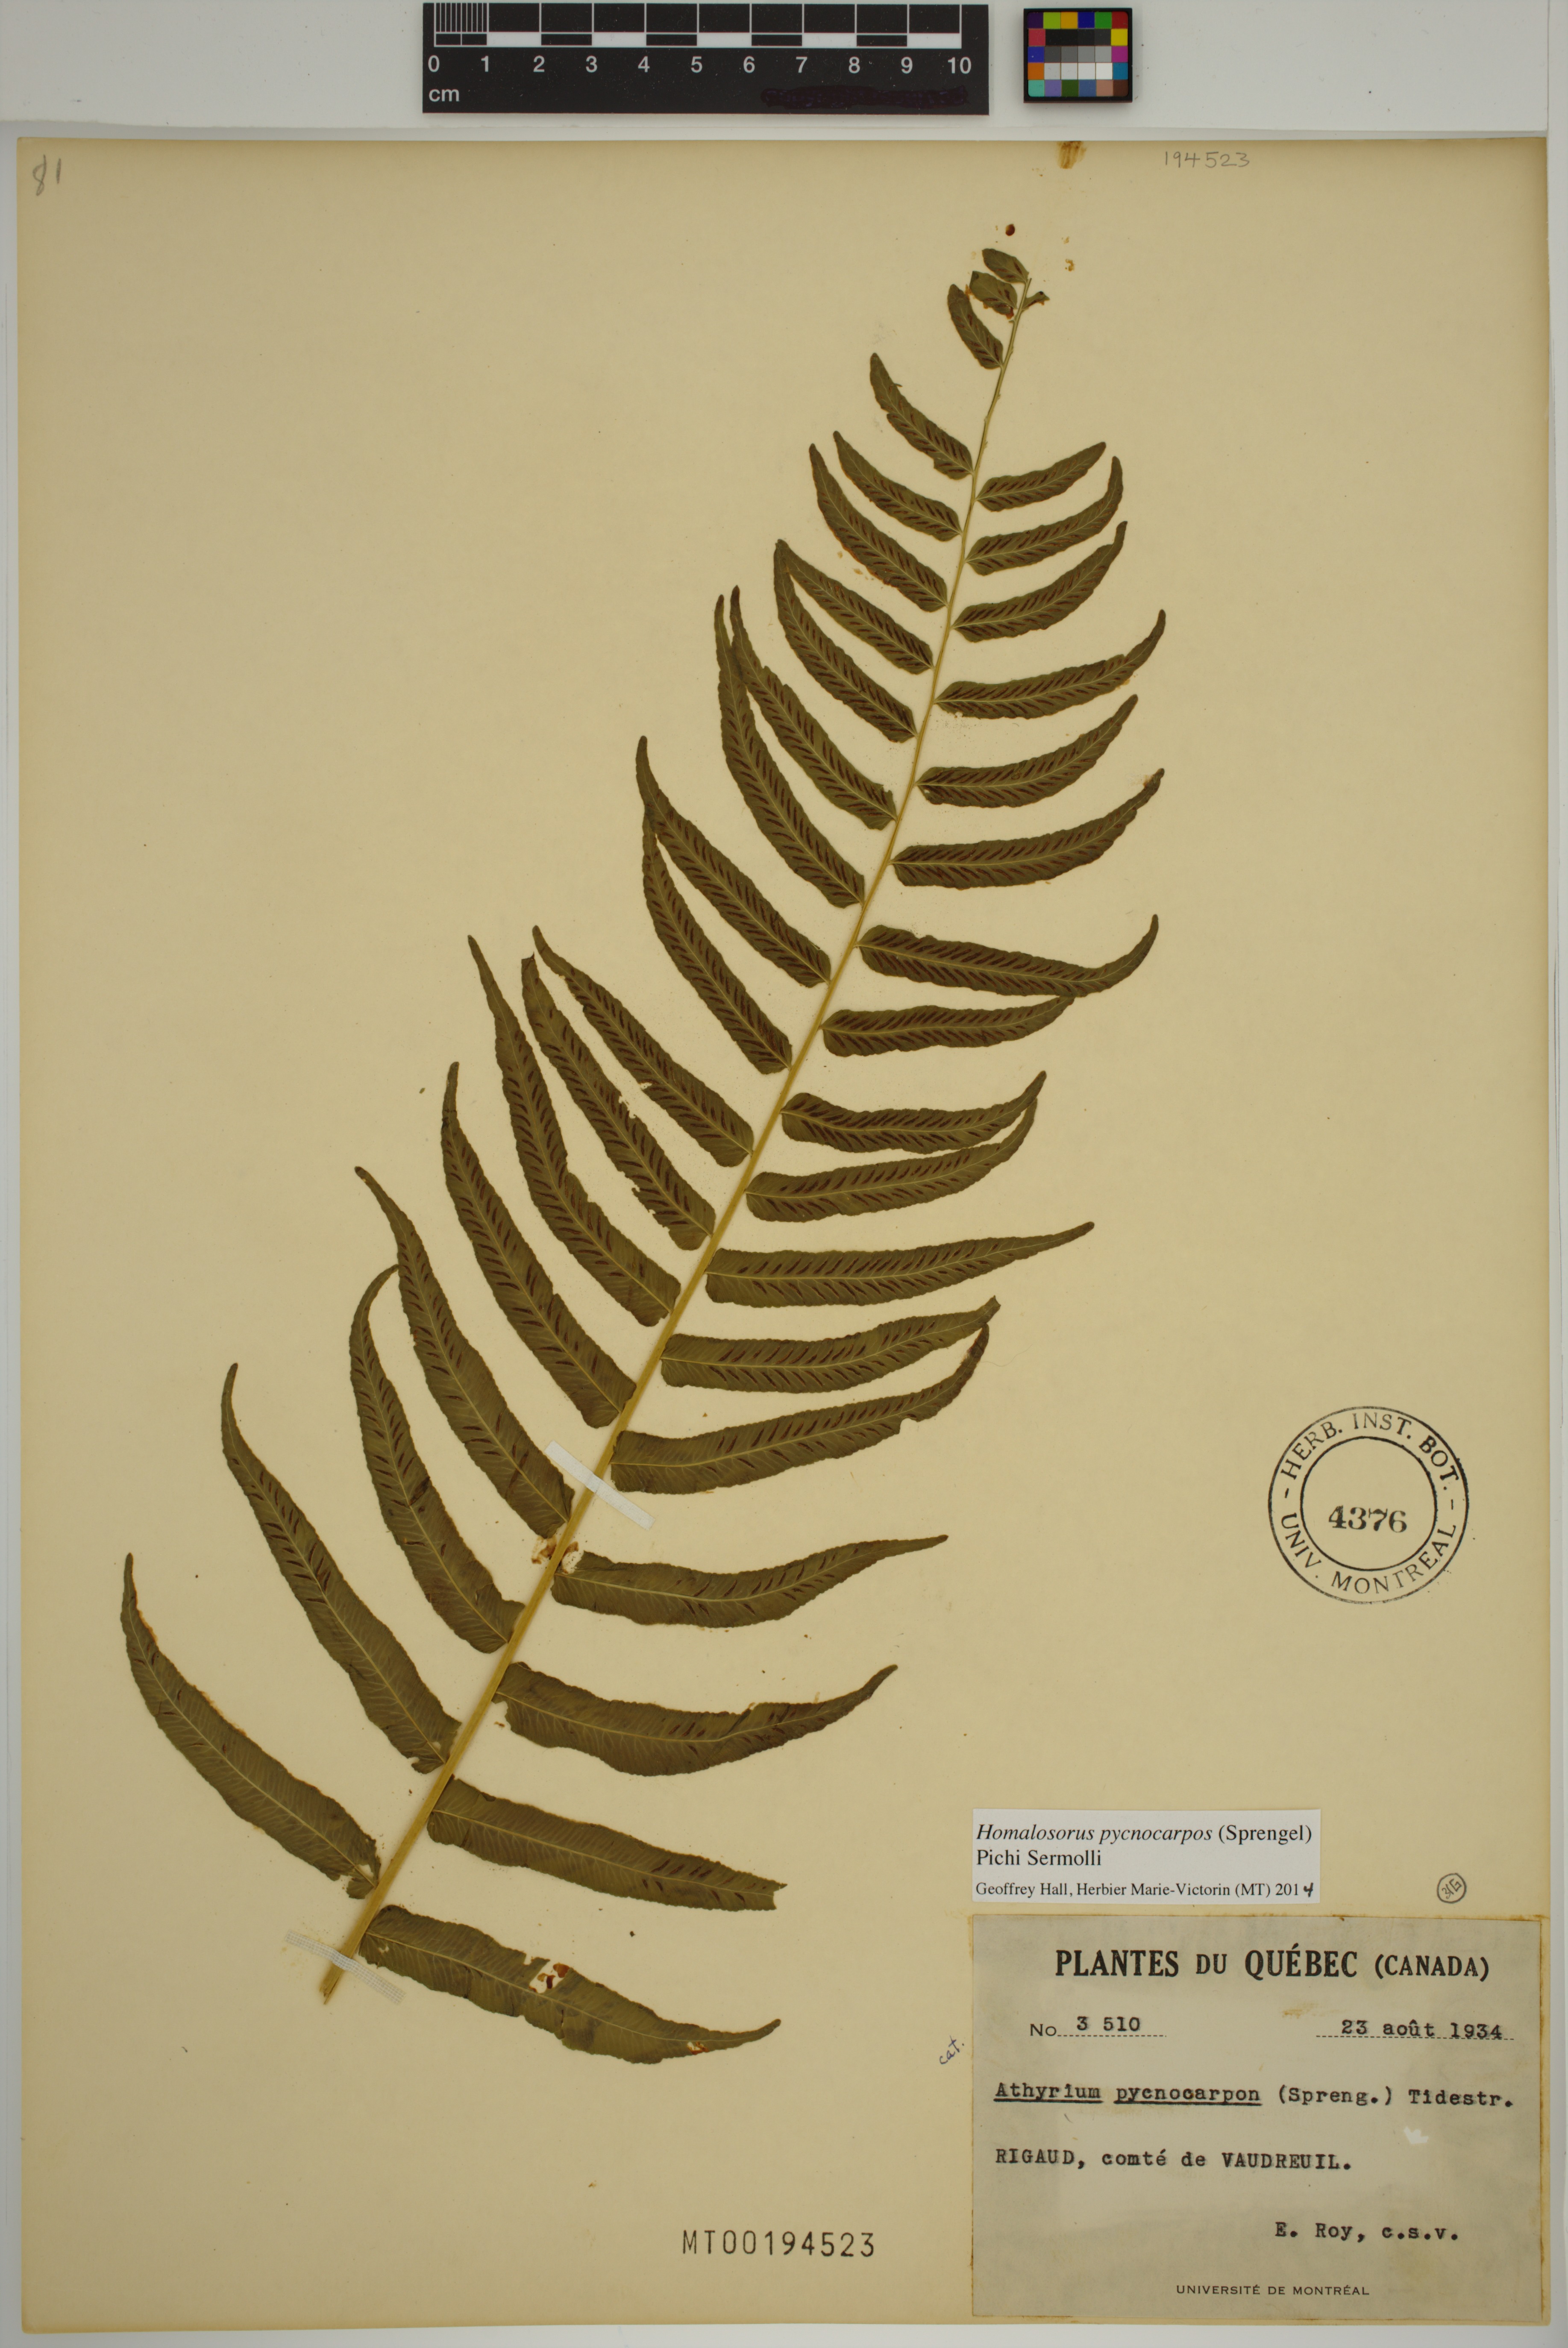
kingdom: Plantae
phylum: Tracheophyta
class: Polypodiopsida
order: Polypodiales
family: Diplaziopsidaceae
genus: Homalosorus
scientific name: Homalosorus pycnocarpos
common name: Glade fern
